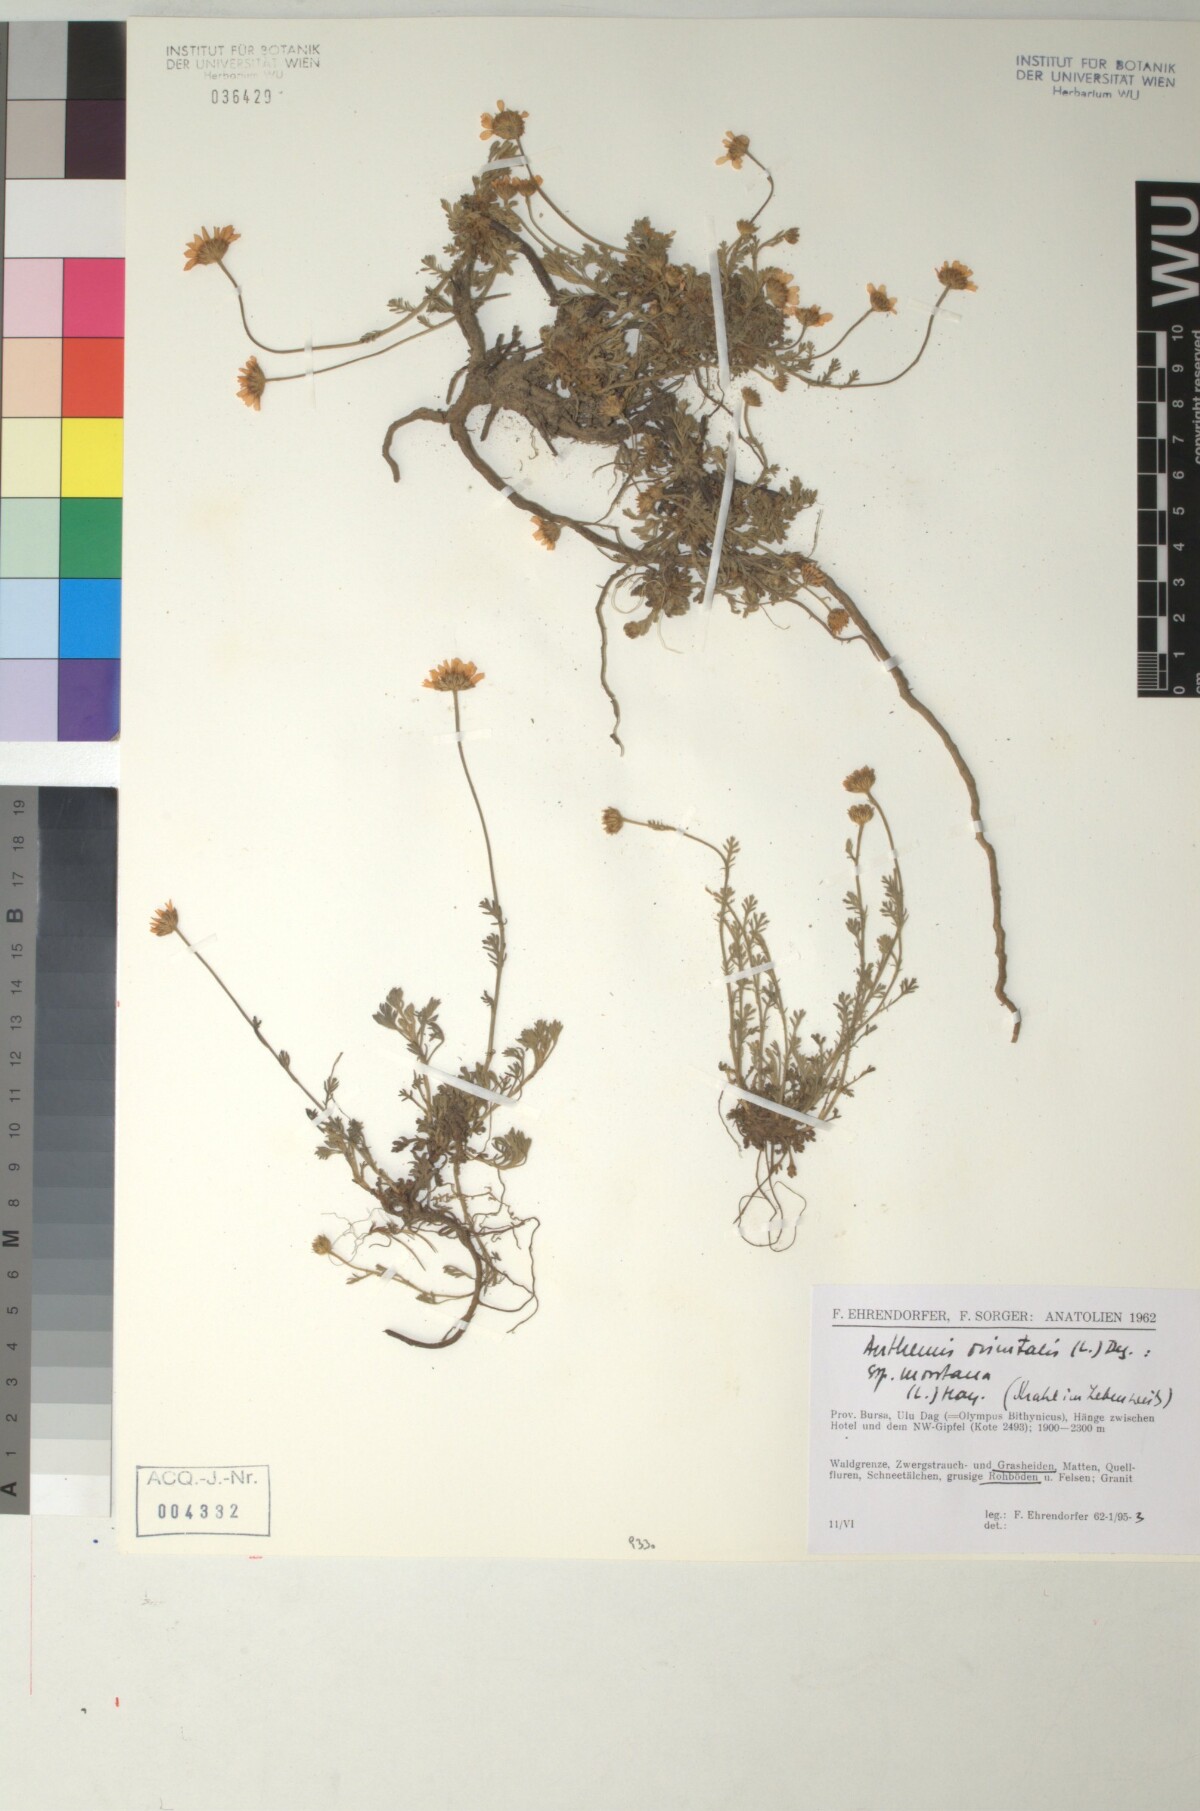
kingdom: Plantae
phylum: Tracheophyta
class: Magnoliopsida
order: Asterales
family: Asteraceae
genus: Anthemis
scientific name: Anthemis orientalis
